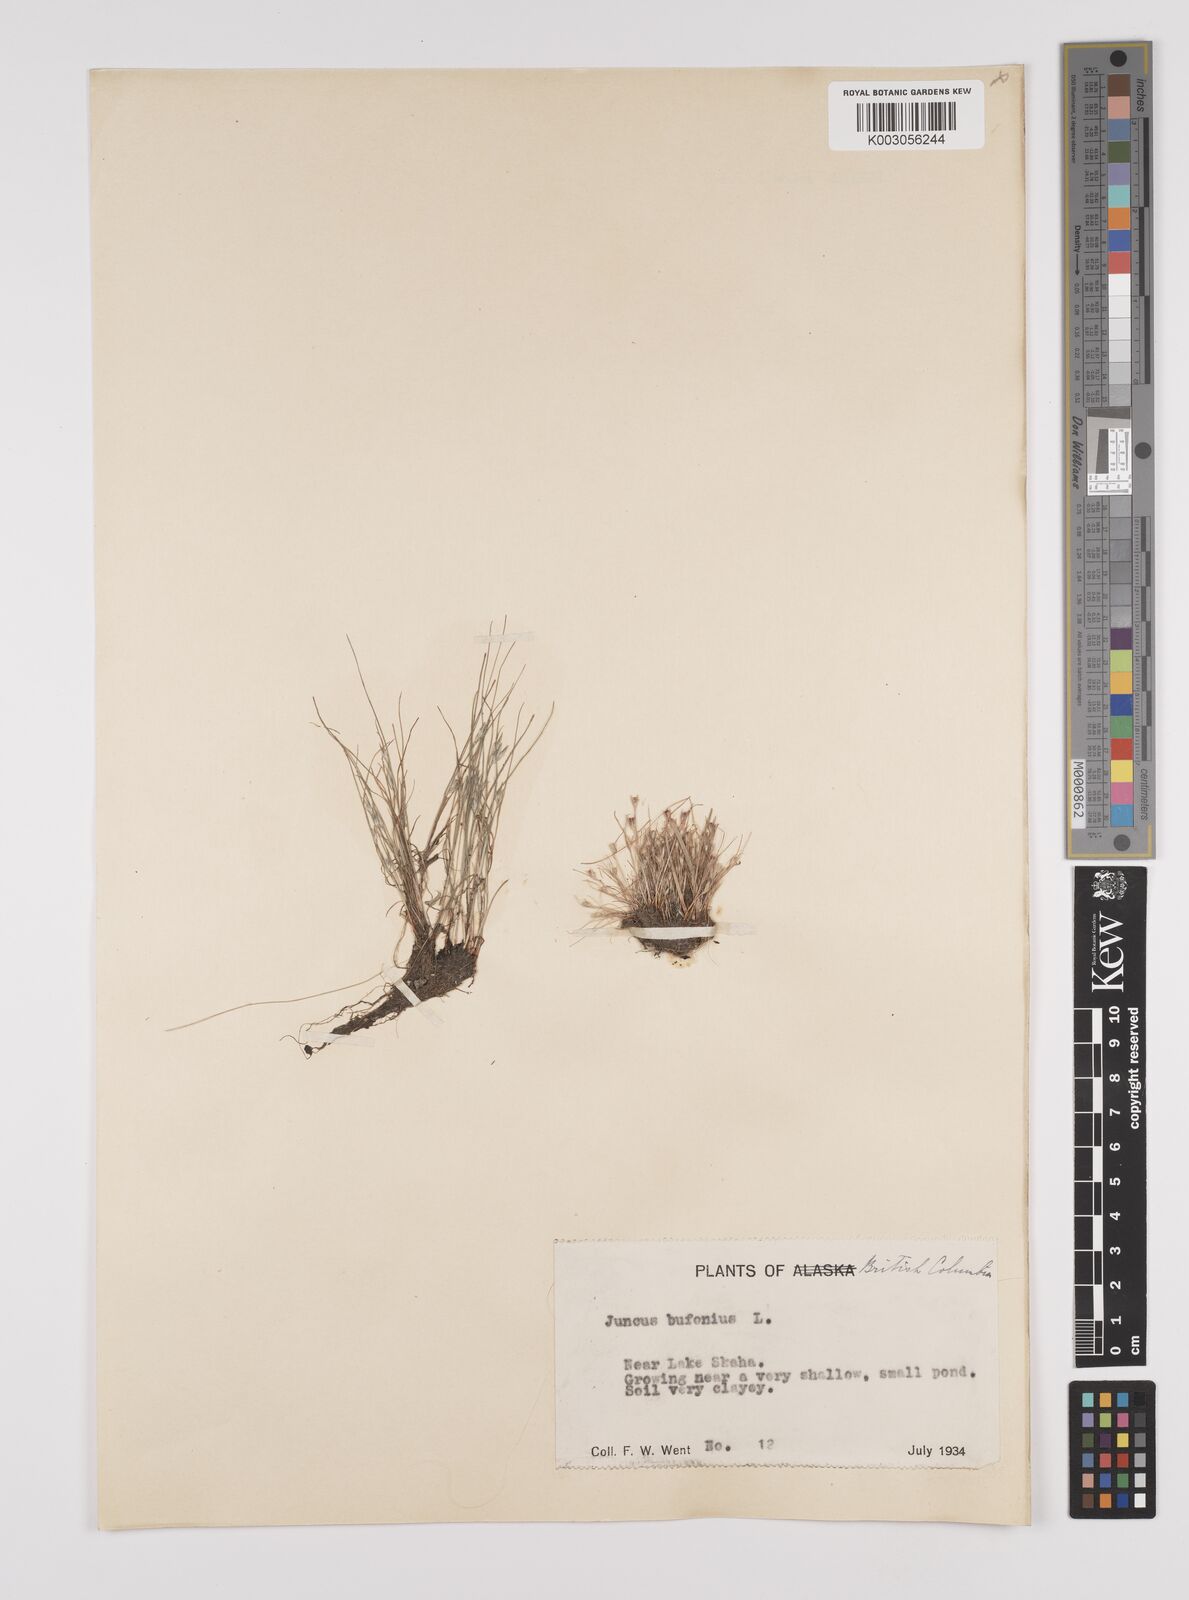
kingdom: Plantae
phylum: Tracheophyta
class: Liliopsida
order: Poales
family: Juncaceae
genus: Juncus
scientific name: Juncus bufonius
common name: Toad rush
